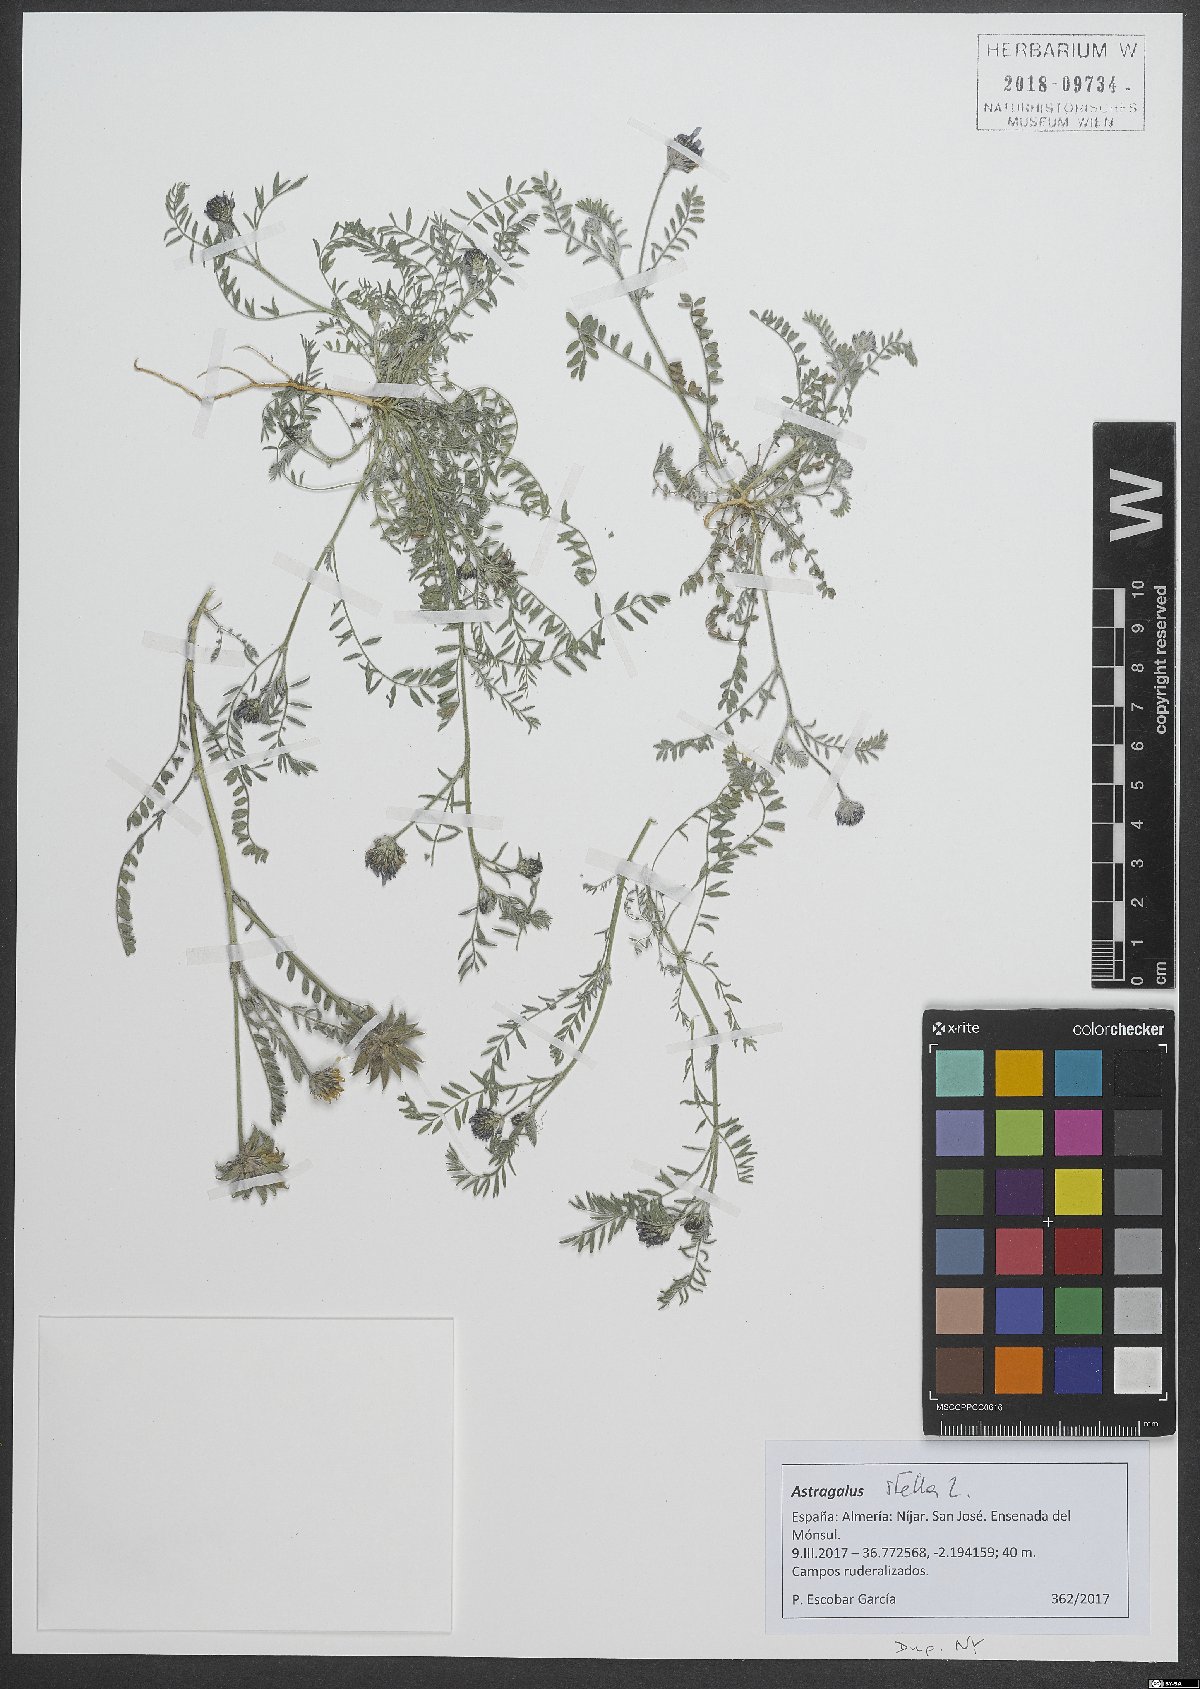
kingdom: Plantae
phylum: Tracheophyta
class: Magnoliopsida
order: Fabales
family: Fabaceae
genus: Astragalus
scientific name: Astragalus stella
